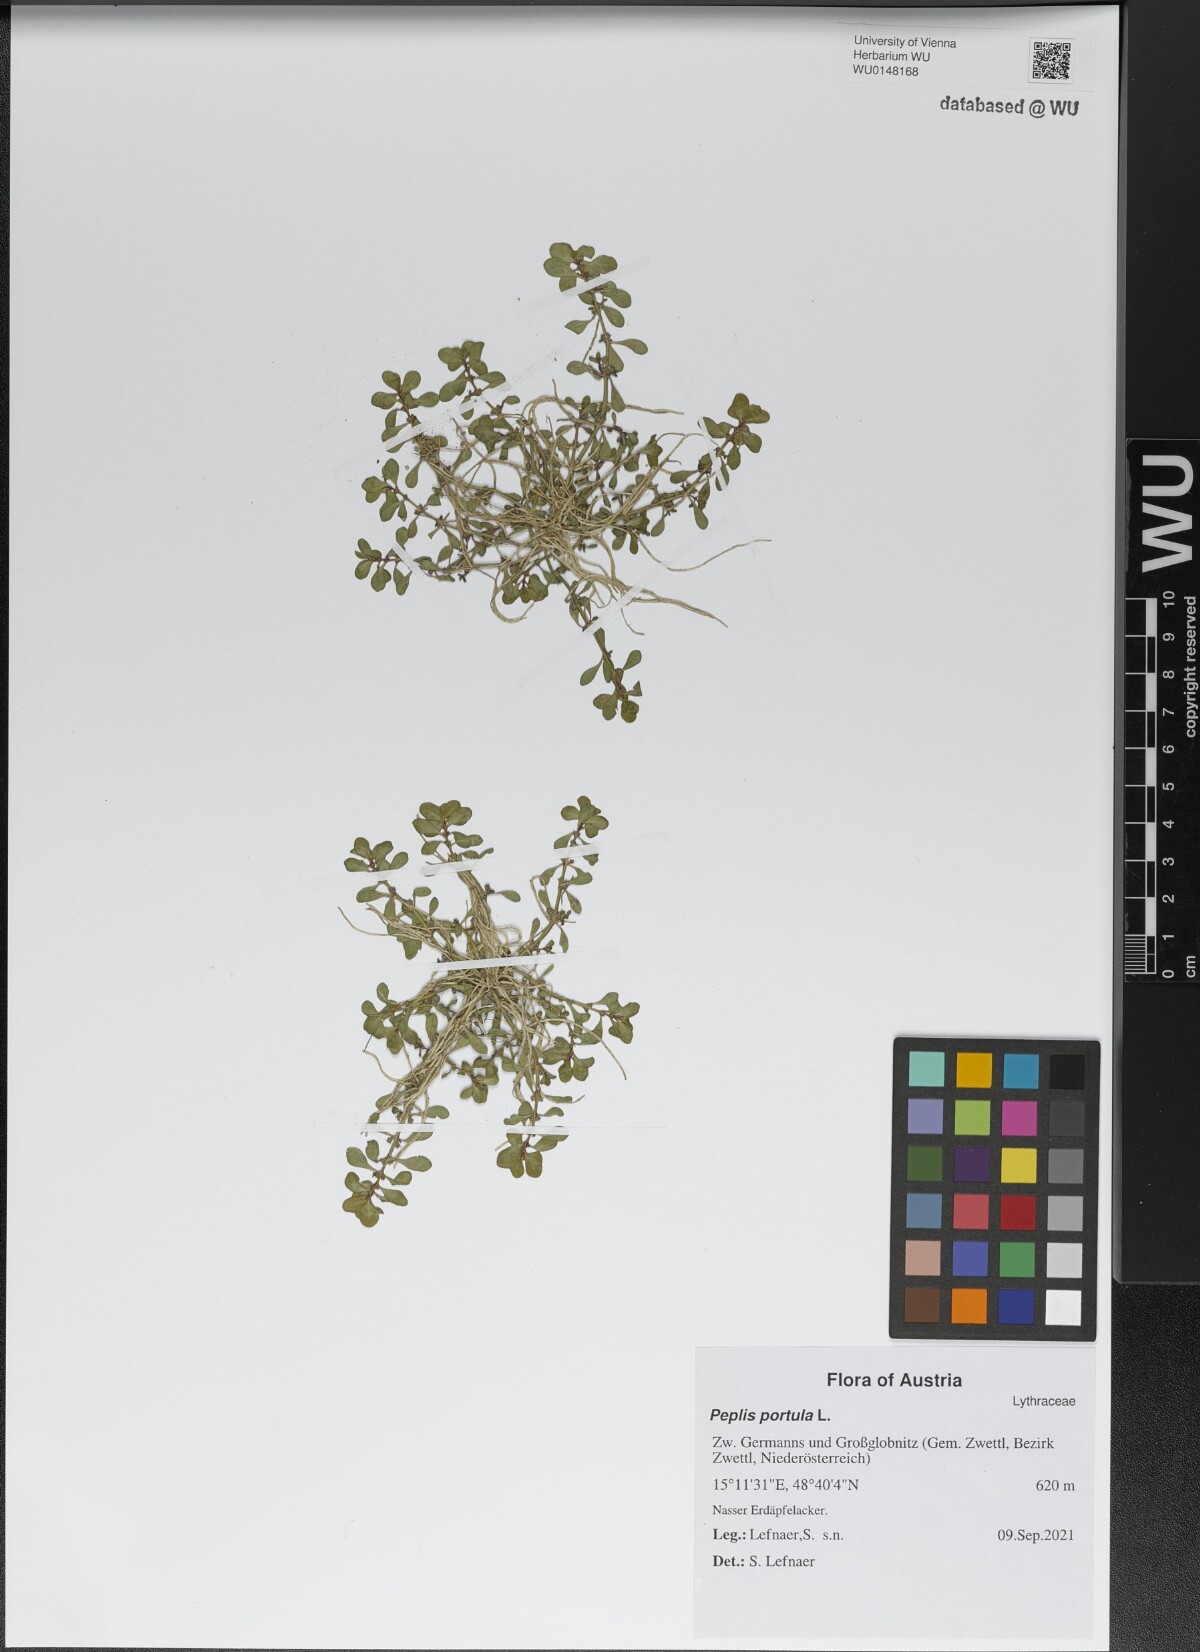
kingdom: Plantae
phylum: Tracheophyta
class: Magnoliopsida
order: Myrtales
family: Lythraceae
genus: Lythrum
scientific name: Lythrum portula
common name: Water purslane
